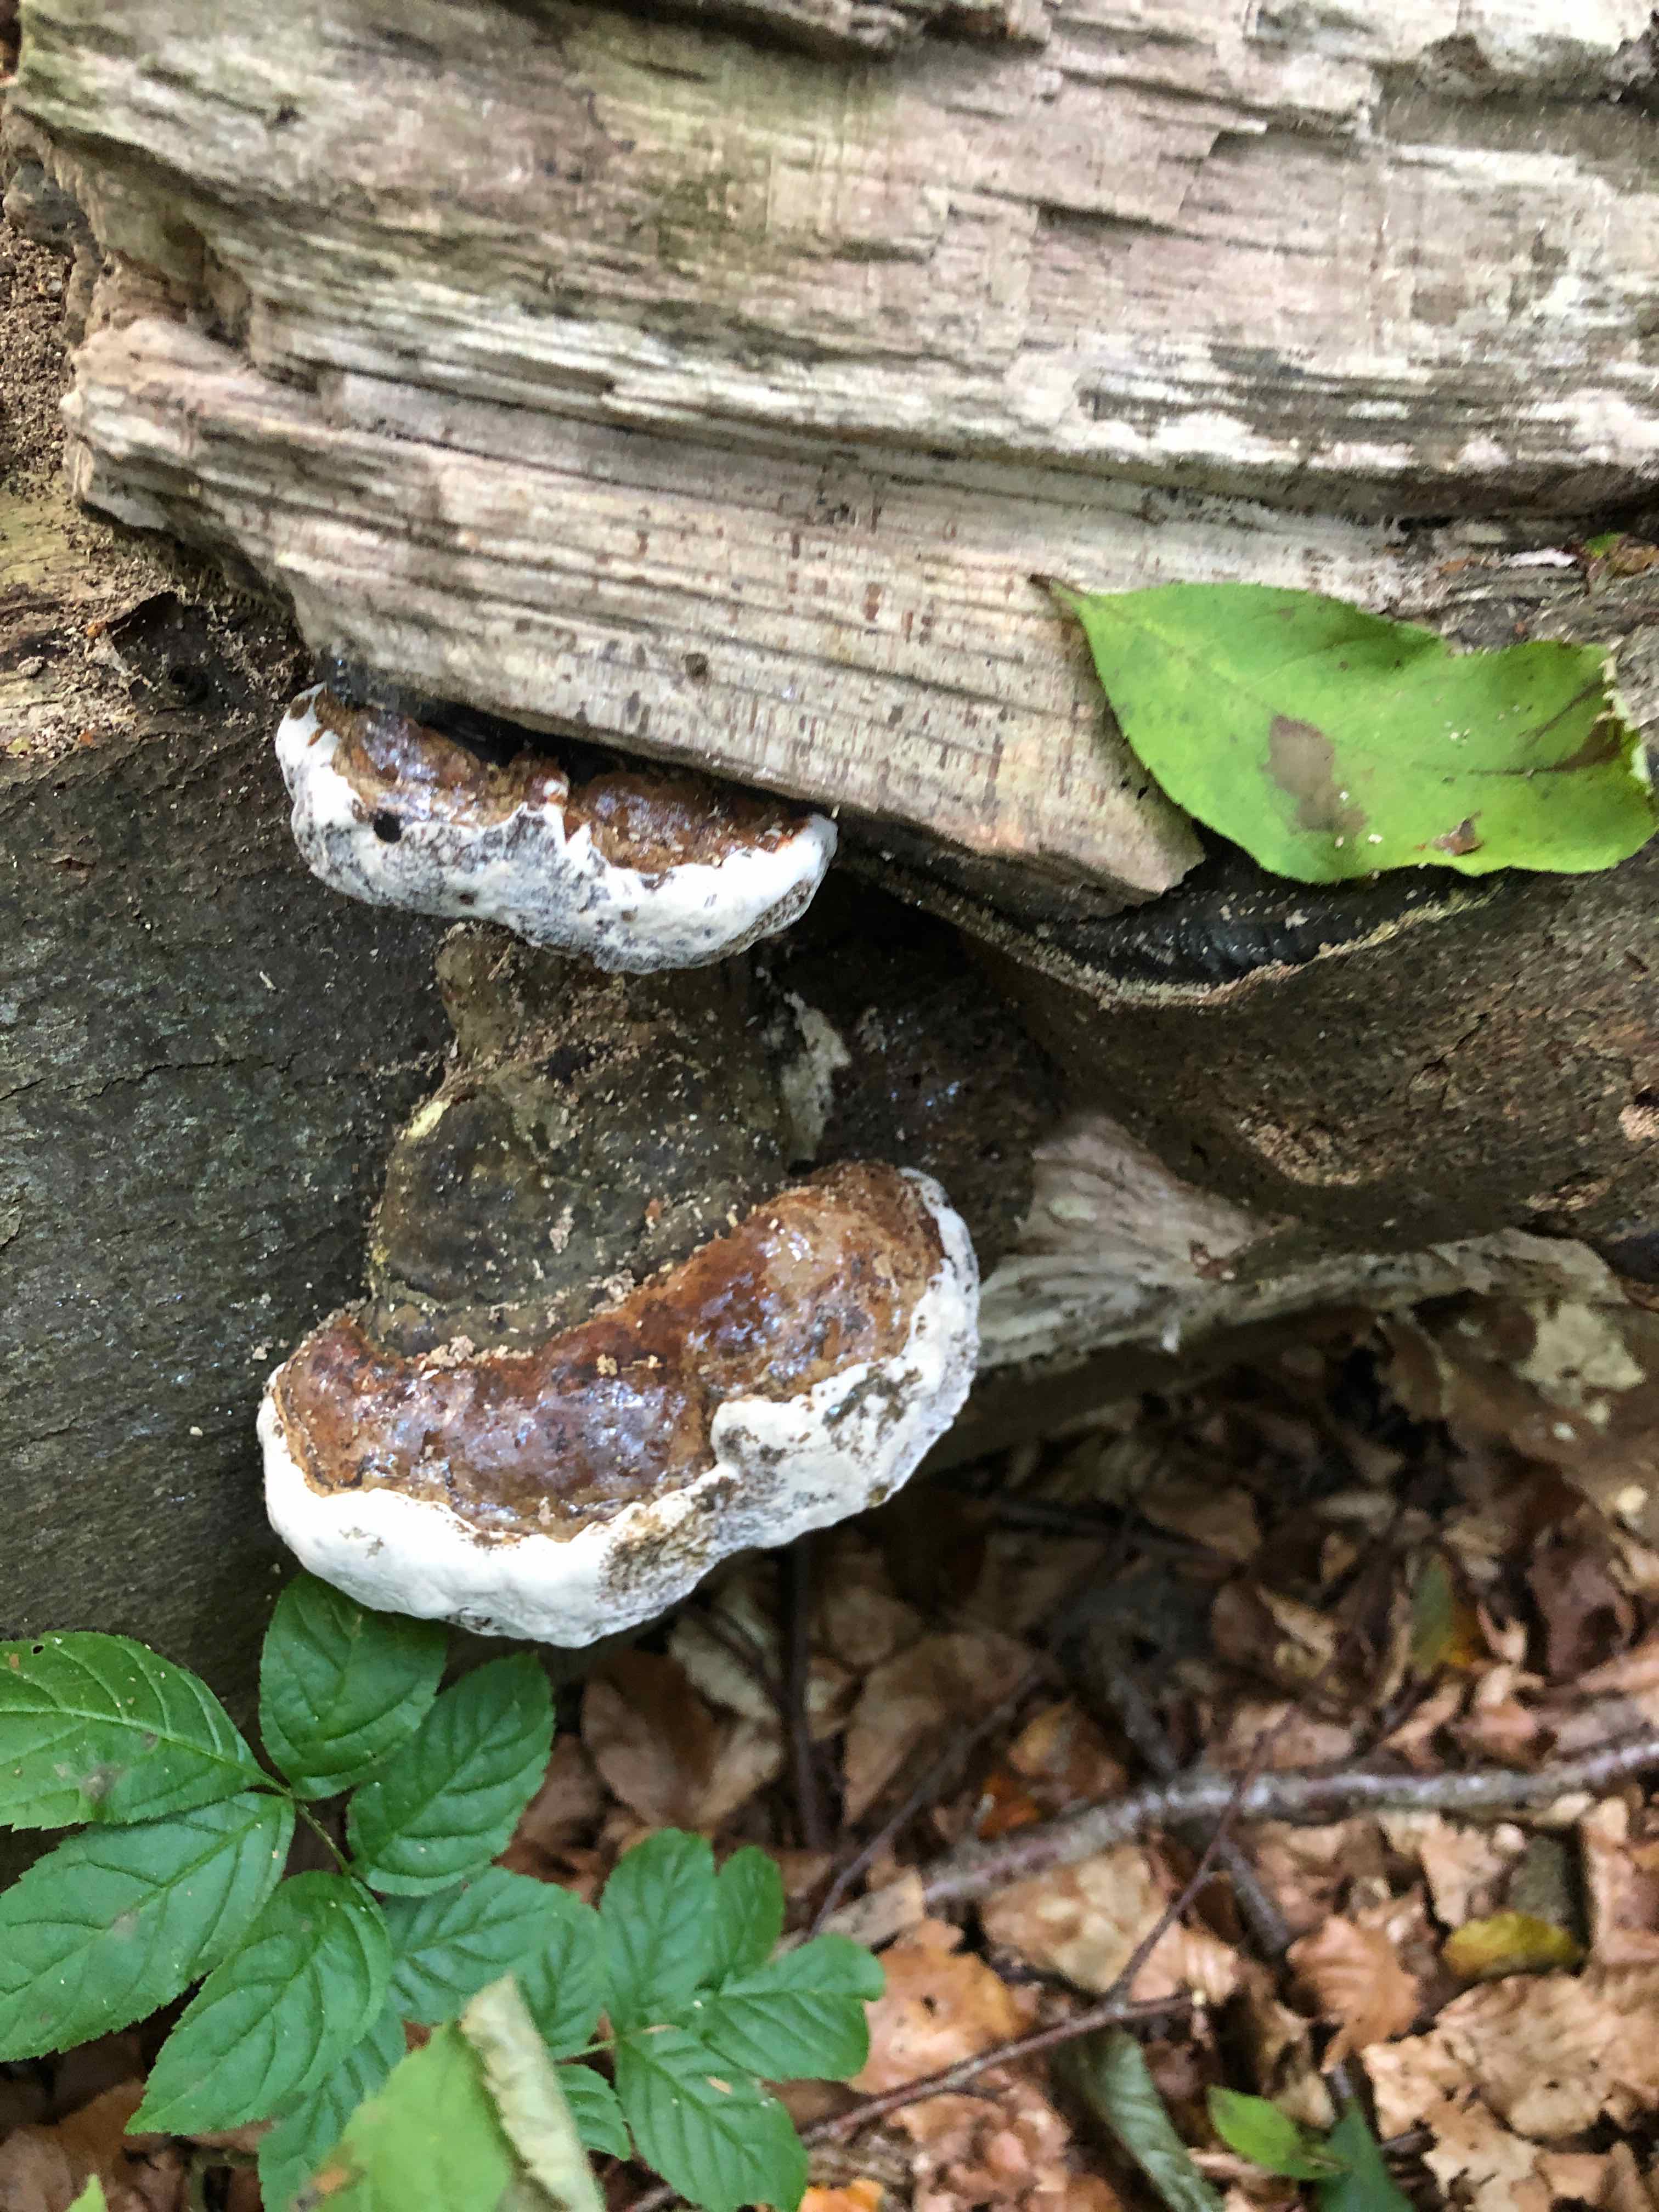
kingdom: Fungi
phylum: Basidiomycota
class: Agaricomycetes
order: Polyporales
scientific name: Polyporales
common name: poresvampordenen
